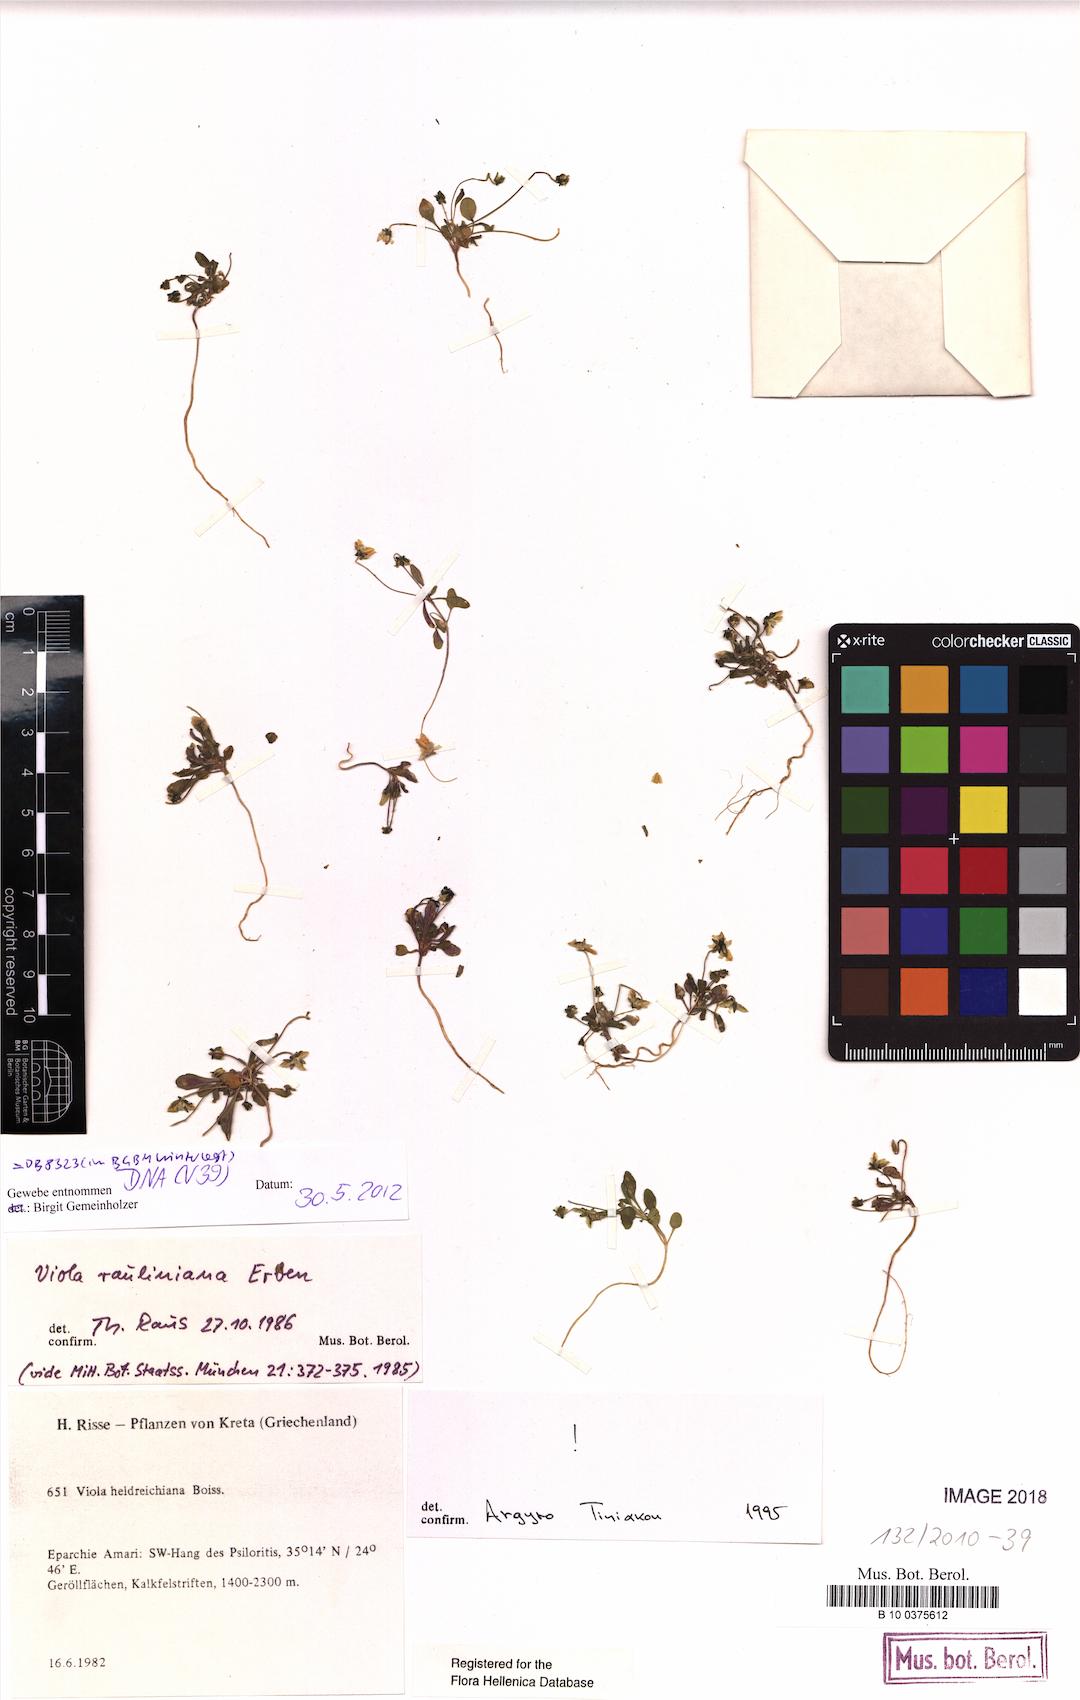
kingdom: Plantae
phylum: Tracheophyta
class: Magnoliopsida
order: Malpighiales
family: Violaceae
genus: Viola
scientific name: Viola rauliniana
